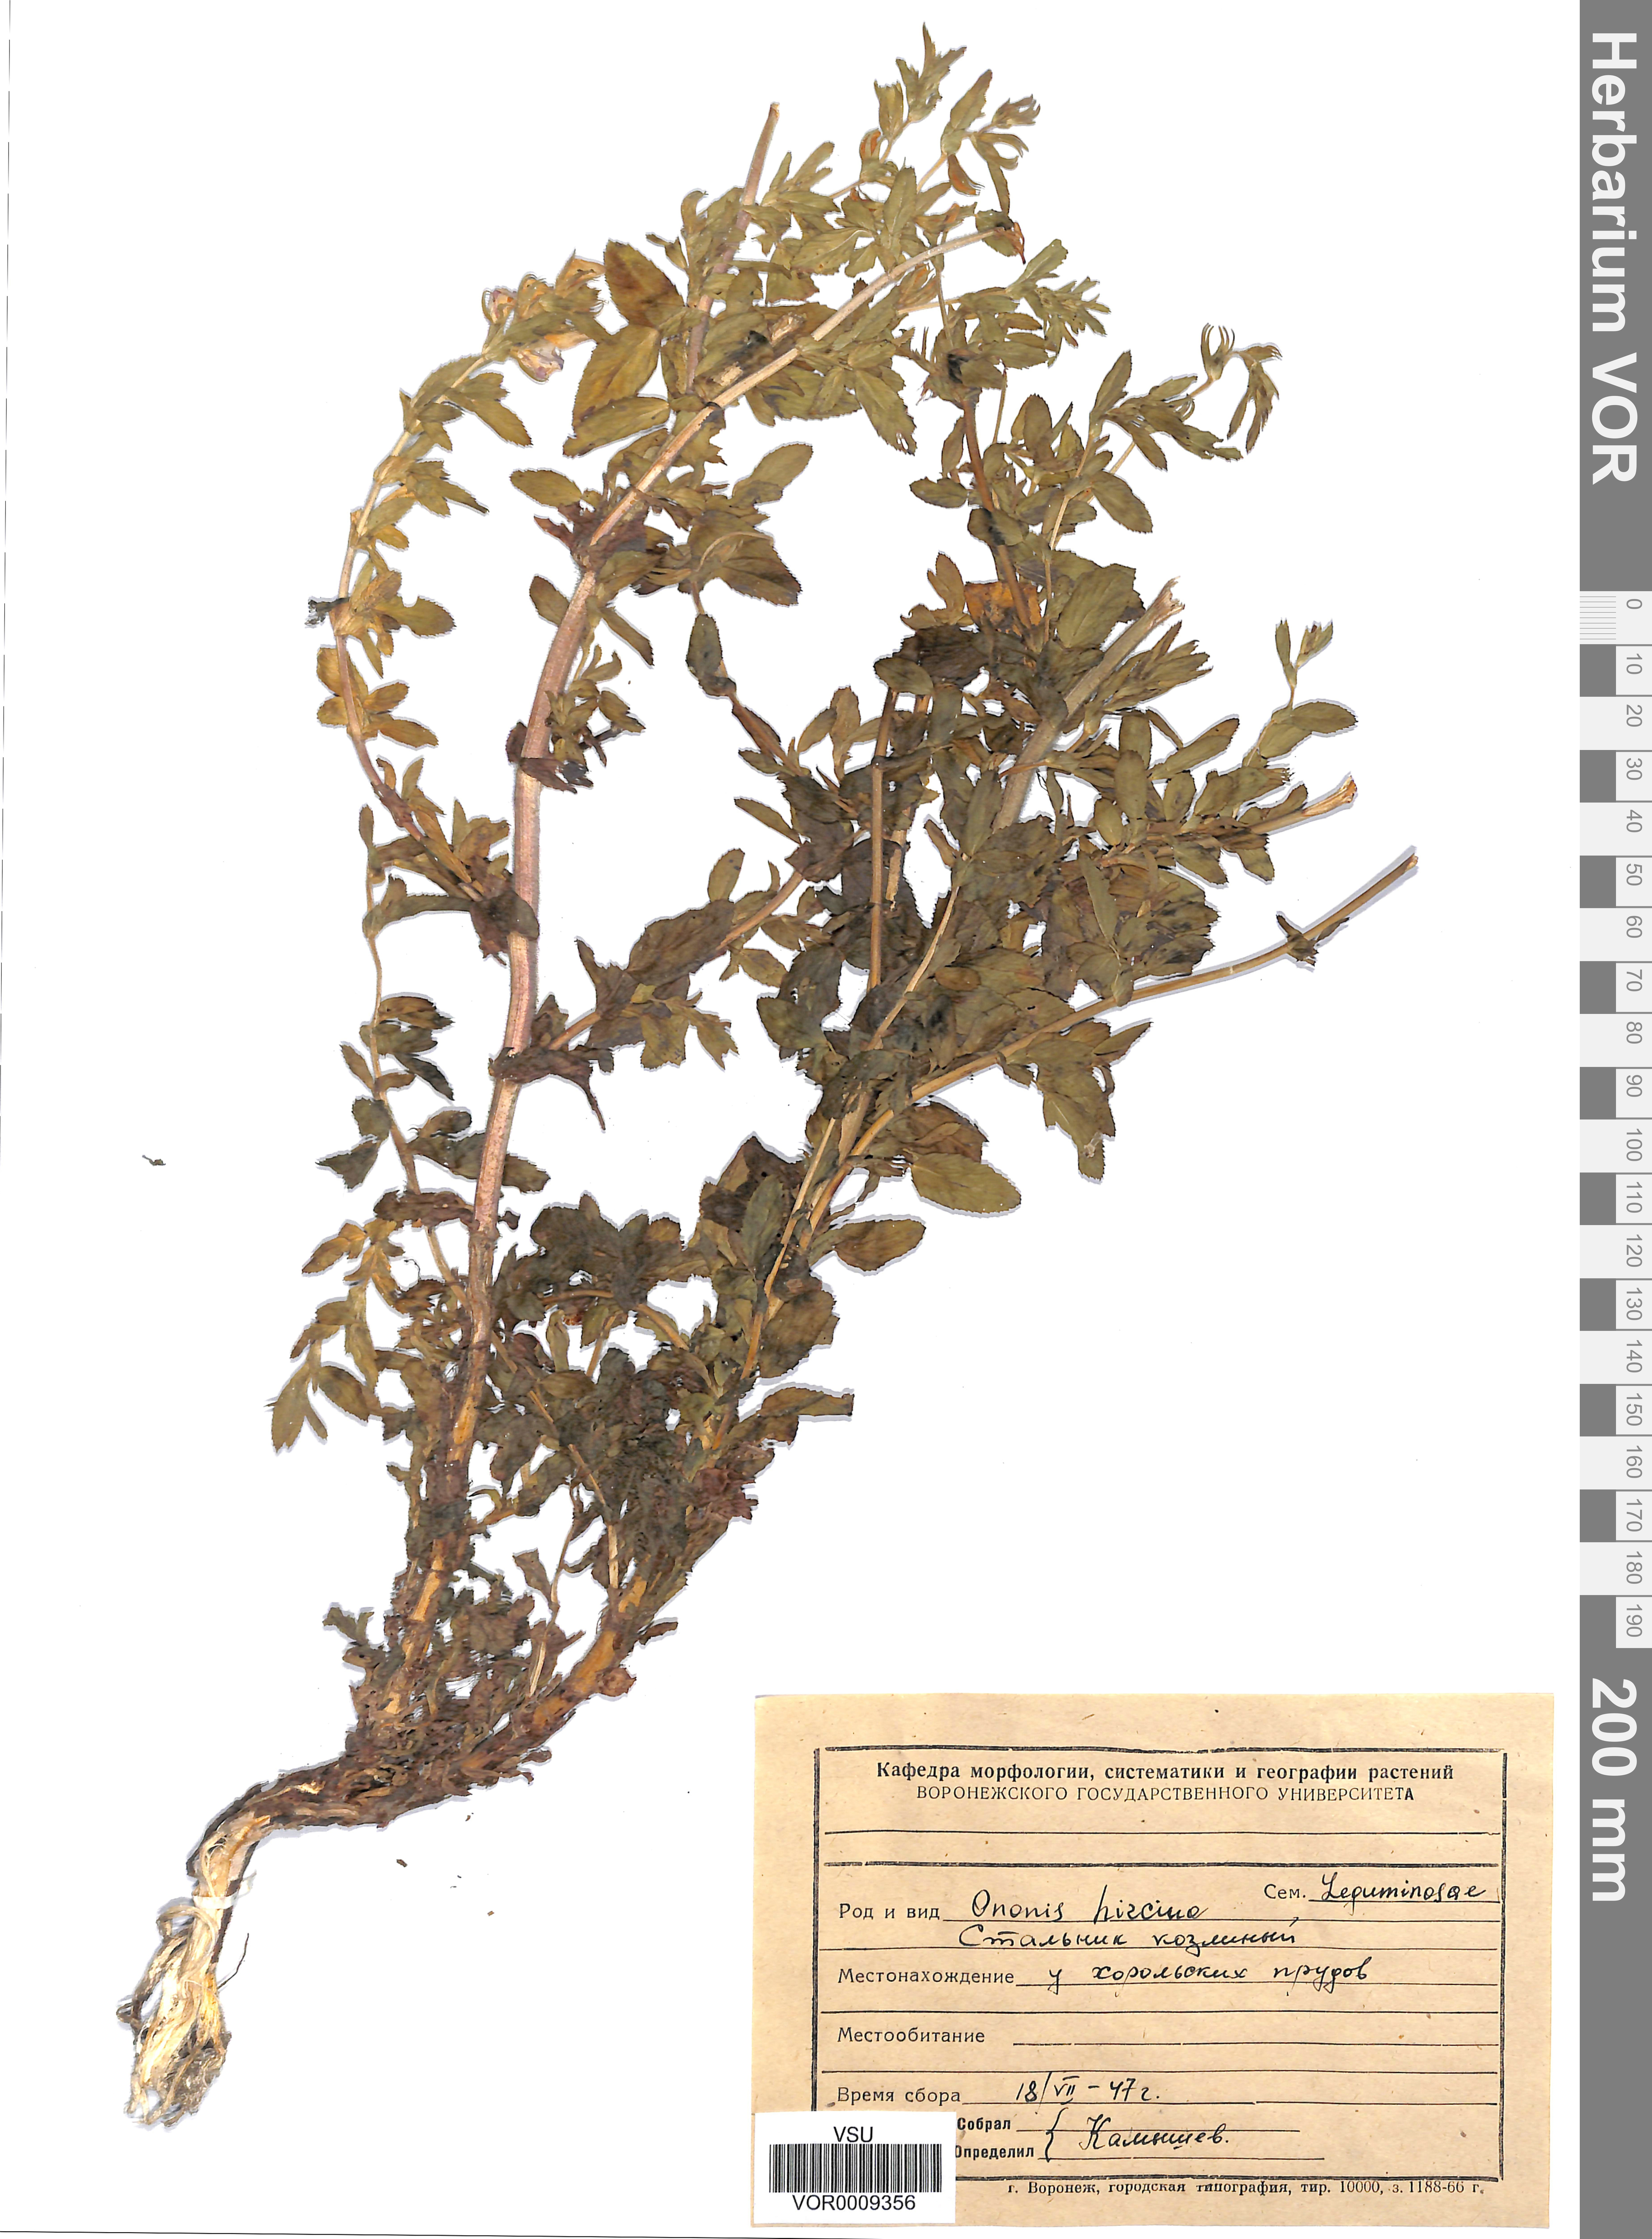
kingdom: Plantae
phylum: Tracheophyta
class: Magnoliopsida
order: Fabales
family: Fabaceae
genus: Ononis
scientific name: Ononis arvensis
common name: Field restharrow
